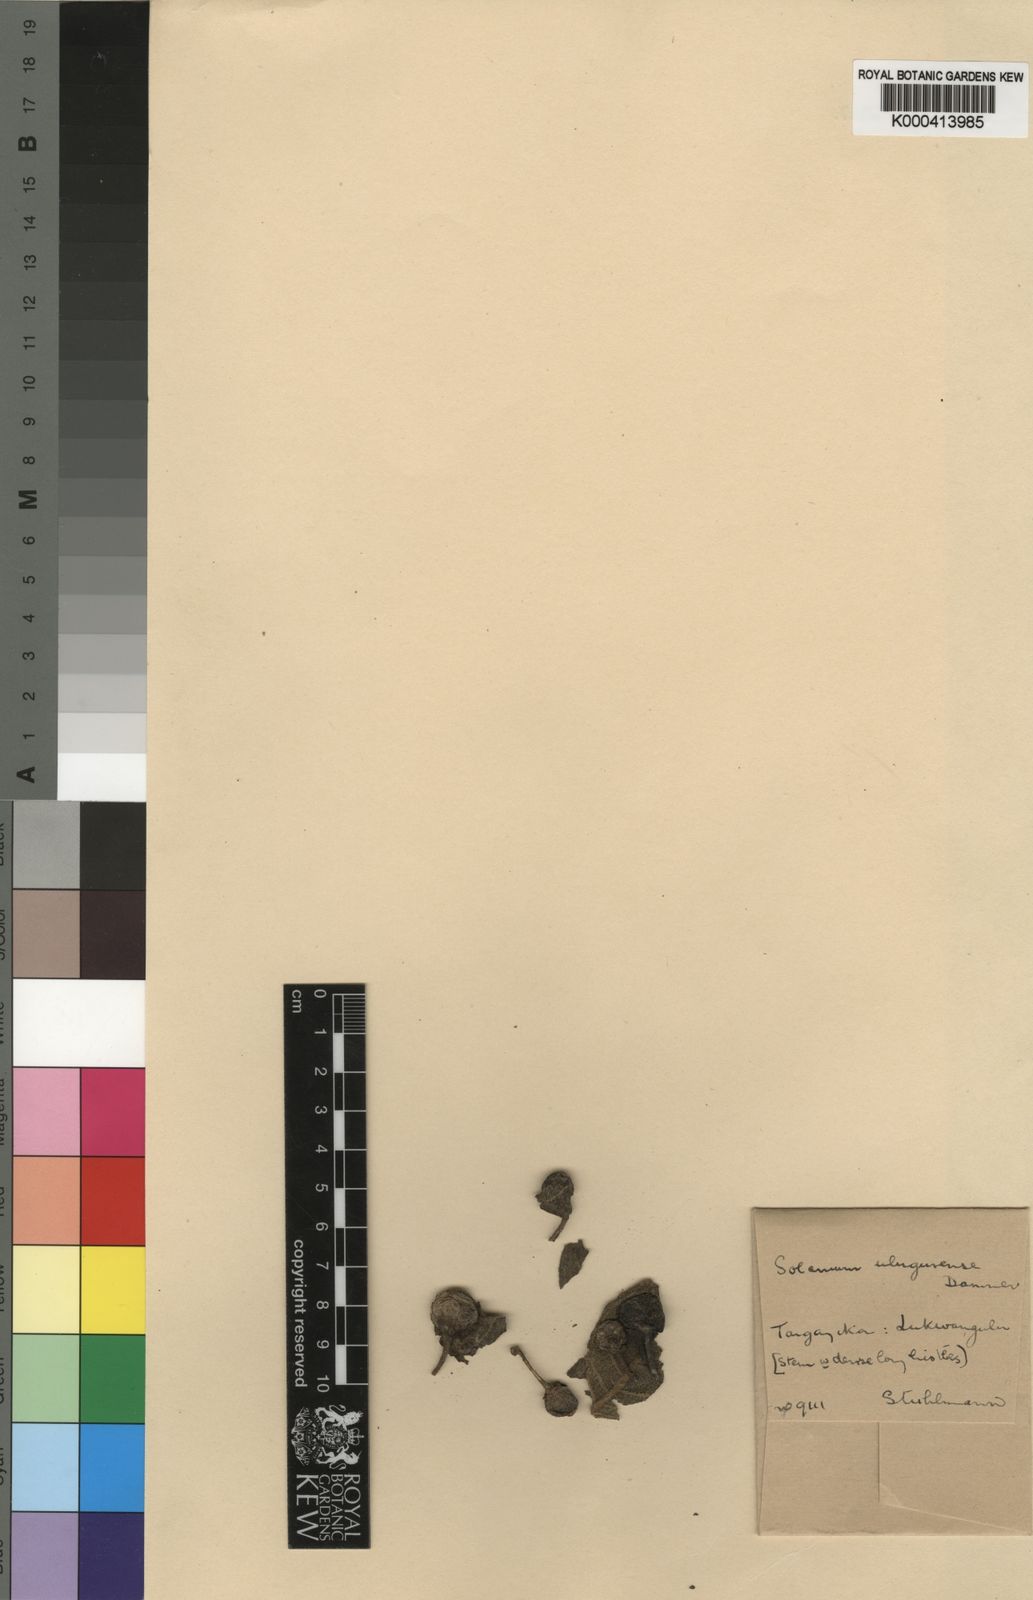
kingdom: Plantae
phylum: Tracheophyta
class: Magnoliopsida
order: Solanales
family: Solanaceae
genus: Solanum
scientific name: Solanum schumannianum
